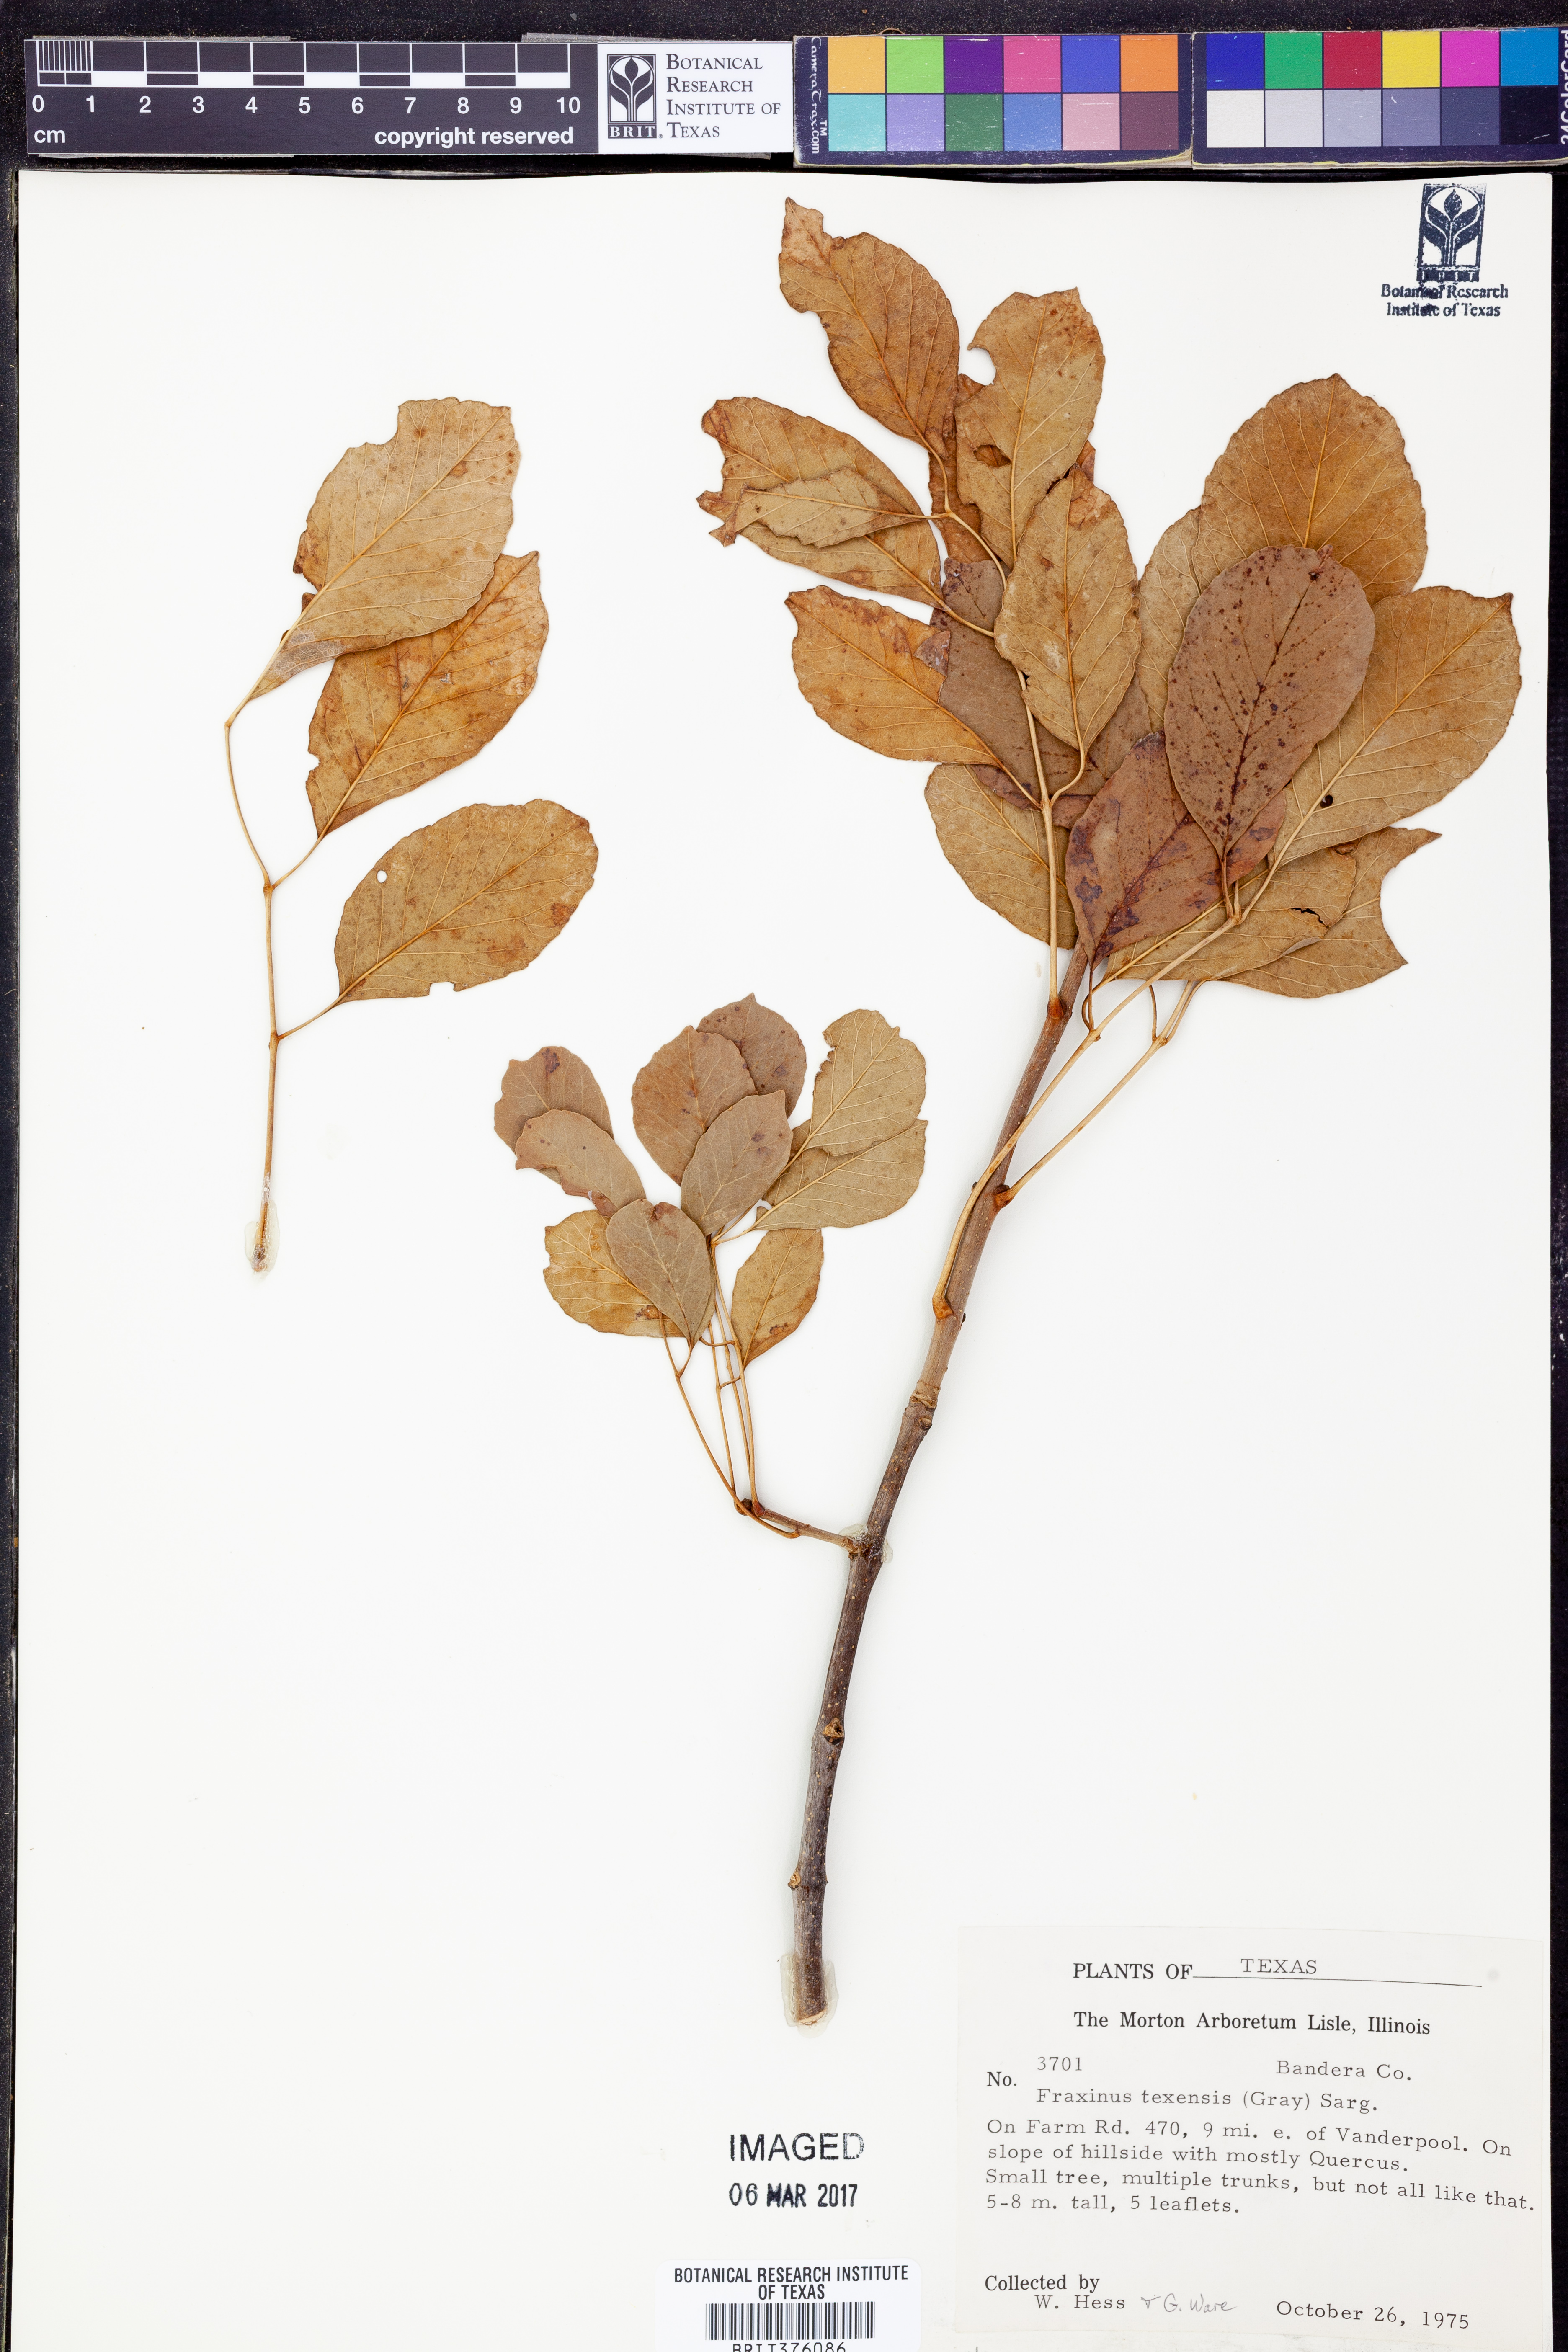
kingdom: Plantae
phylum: Tracheophyta
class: Magnoliopsida
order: Lamiales
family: Oleaceae
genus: Fraxinus
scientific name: Fraxinus albicans
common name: Texas ash
